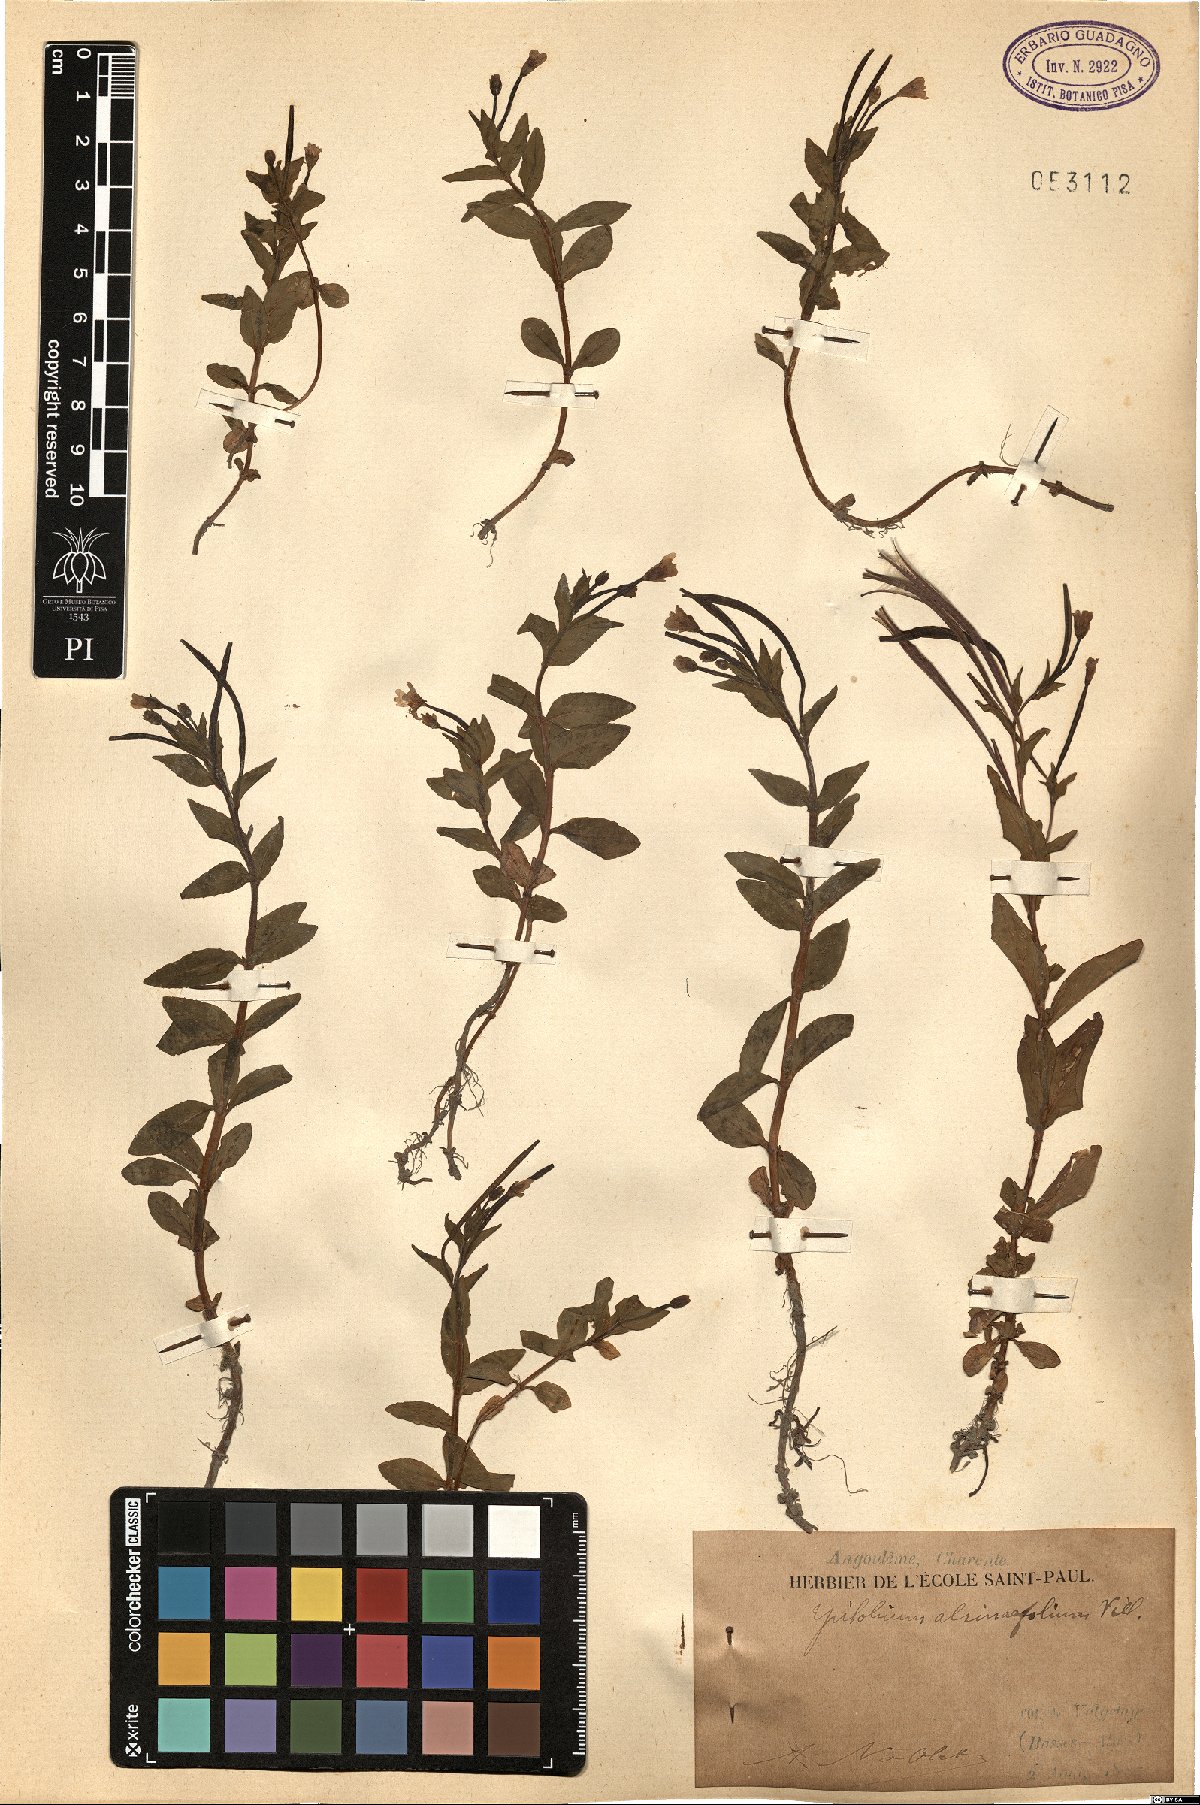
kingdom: Plantae
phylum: Tracheophyta
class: Magnoliopsida
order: Myrtales
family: Onagraceae
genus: Epilobium
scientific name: Epilobium alsinifolium
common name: Chickweed willowherb
